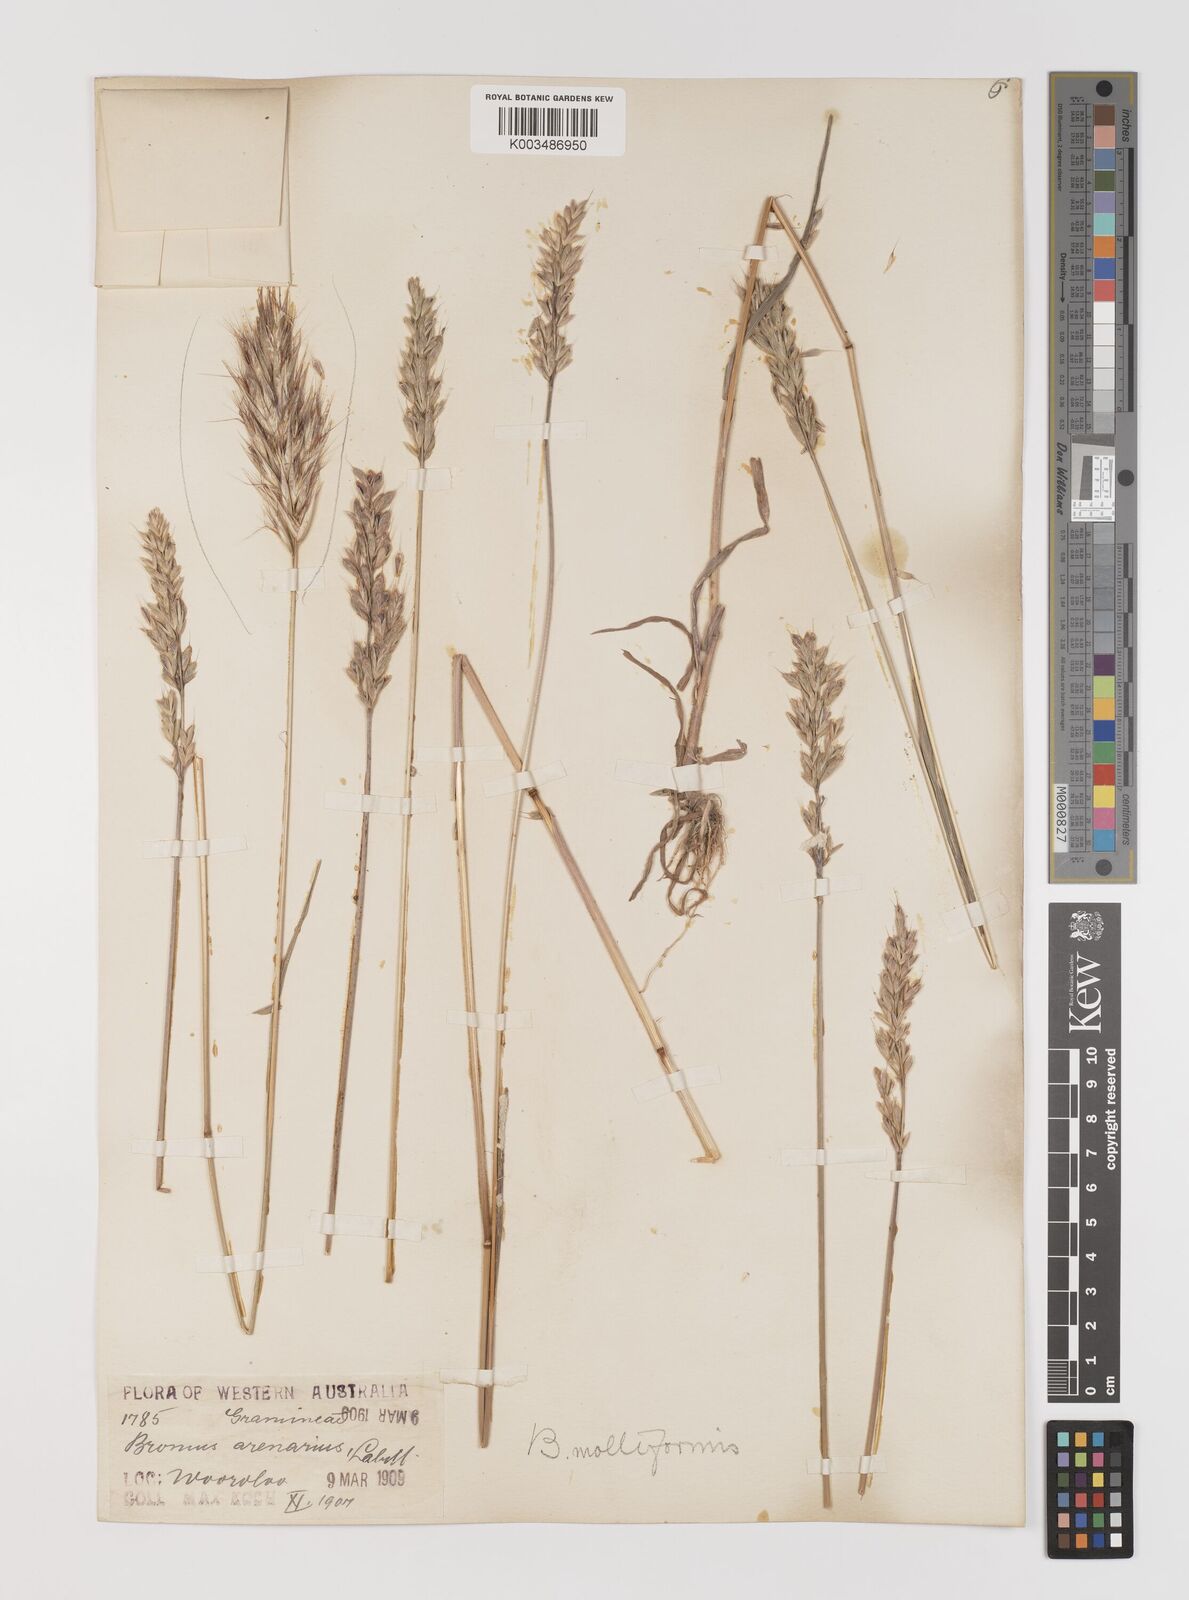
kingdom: Plantae
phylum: Tracheophyta
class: Liliopsida
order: Poales
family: Poaceae
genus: Bromus
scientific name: Bromus hordeaceus
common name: Soft brome
